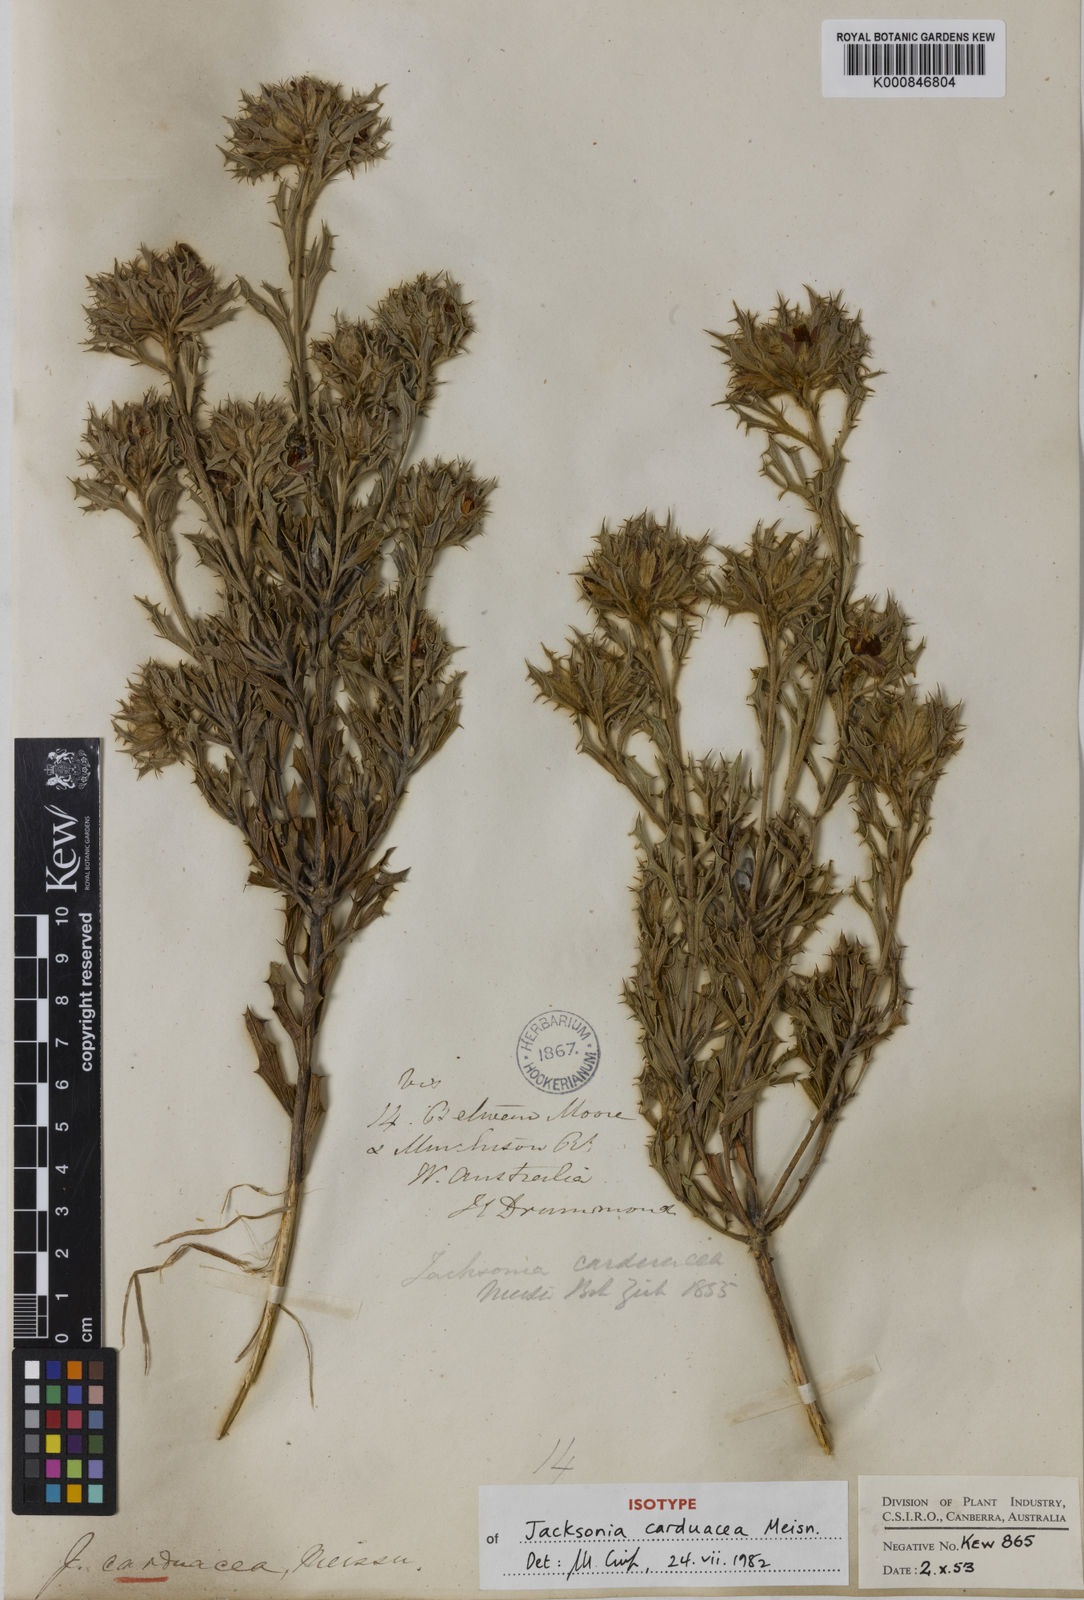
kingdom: Plantae
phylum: Tracheophyta
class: Magnoliopsida
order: Fabales
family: Fabaceae
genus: Jacksonia
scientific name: Jacksonia carduacea
